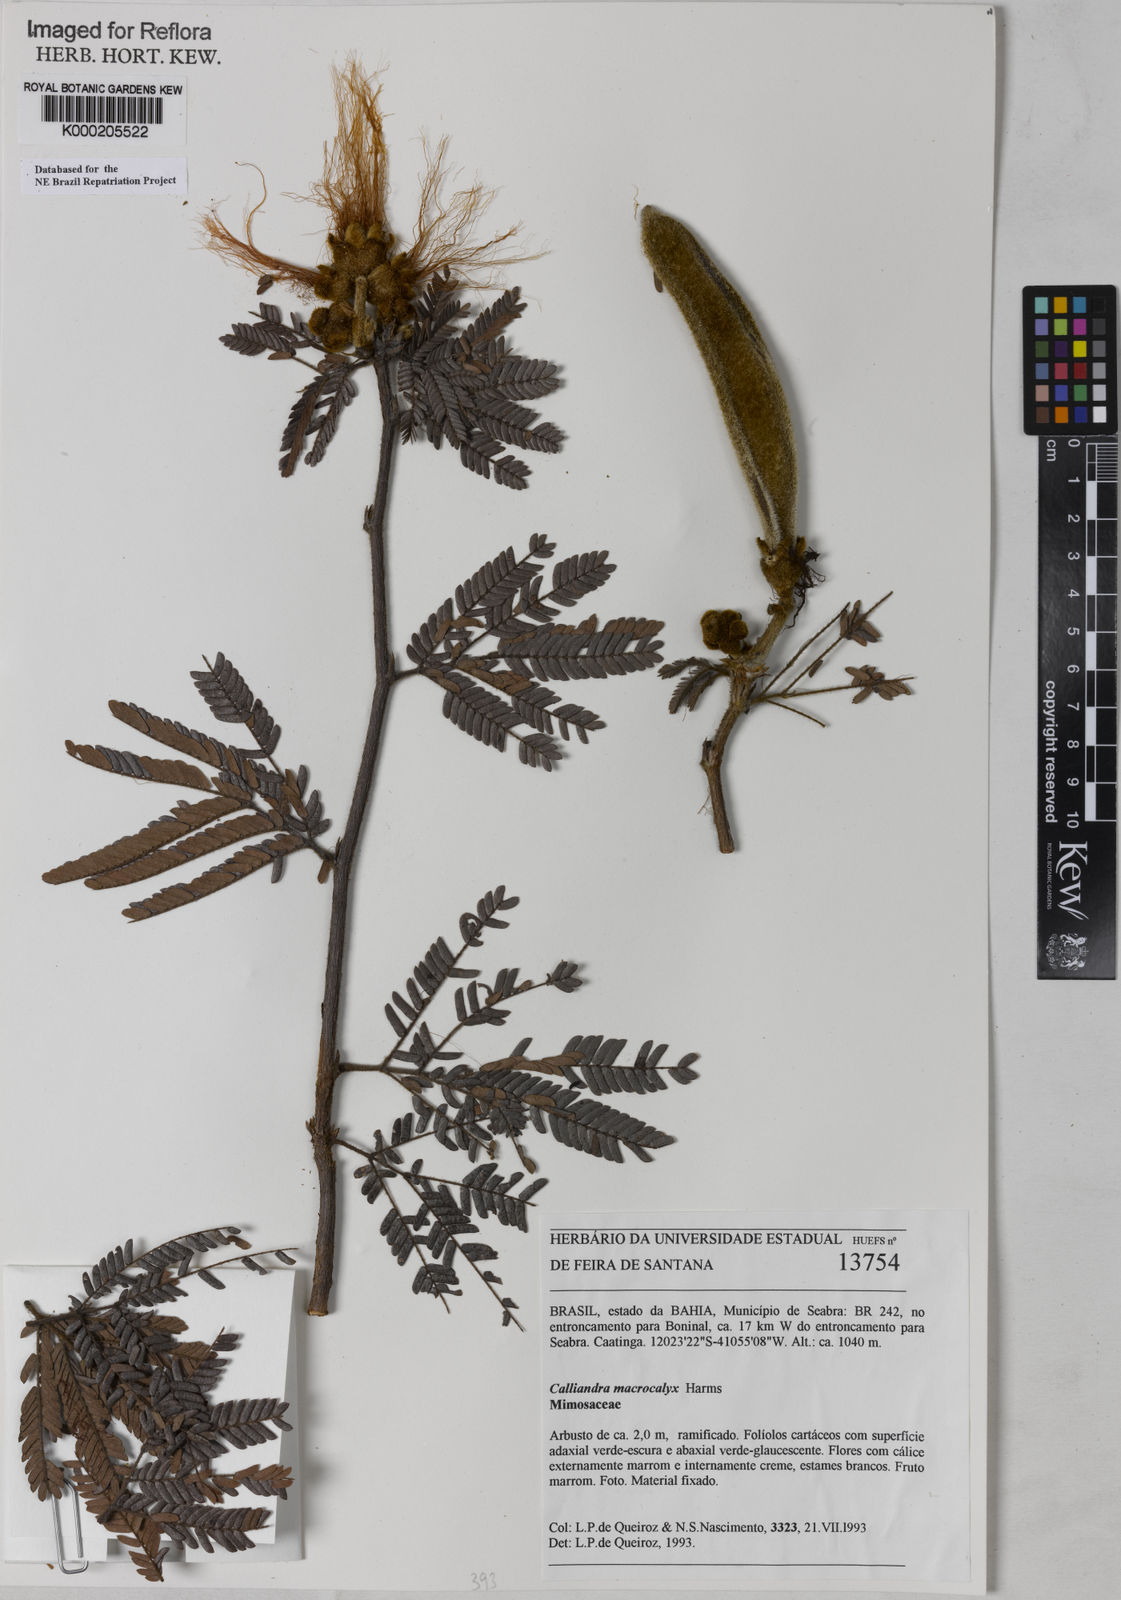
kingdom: Plantae
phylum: Tracheophyta
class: Magnoliopsida
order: Fabales
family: Fabaceae
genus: Calliandra
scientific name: Calliandra macrocalyx
